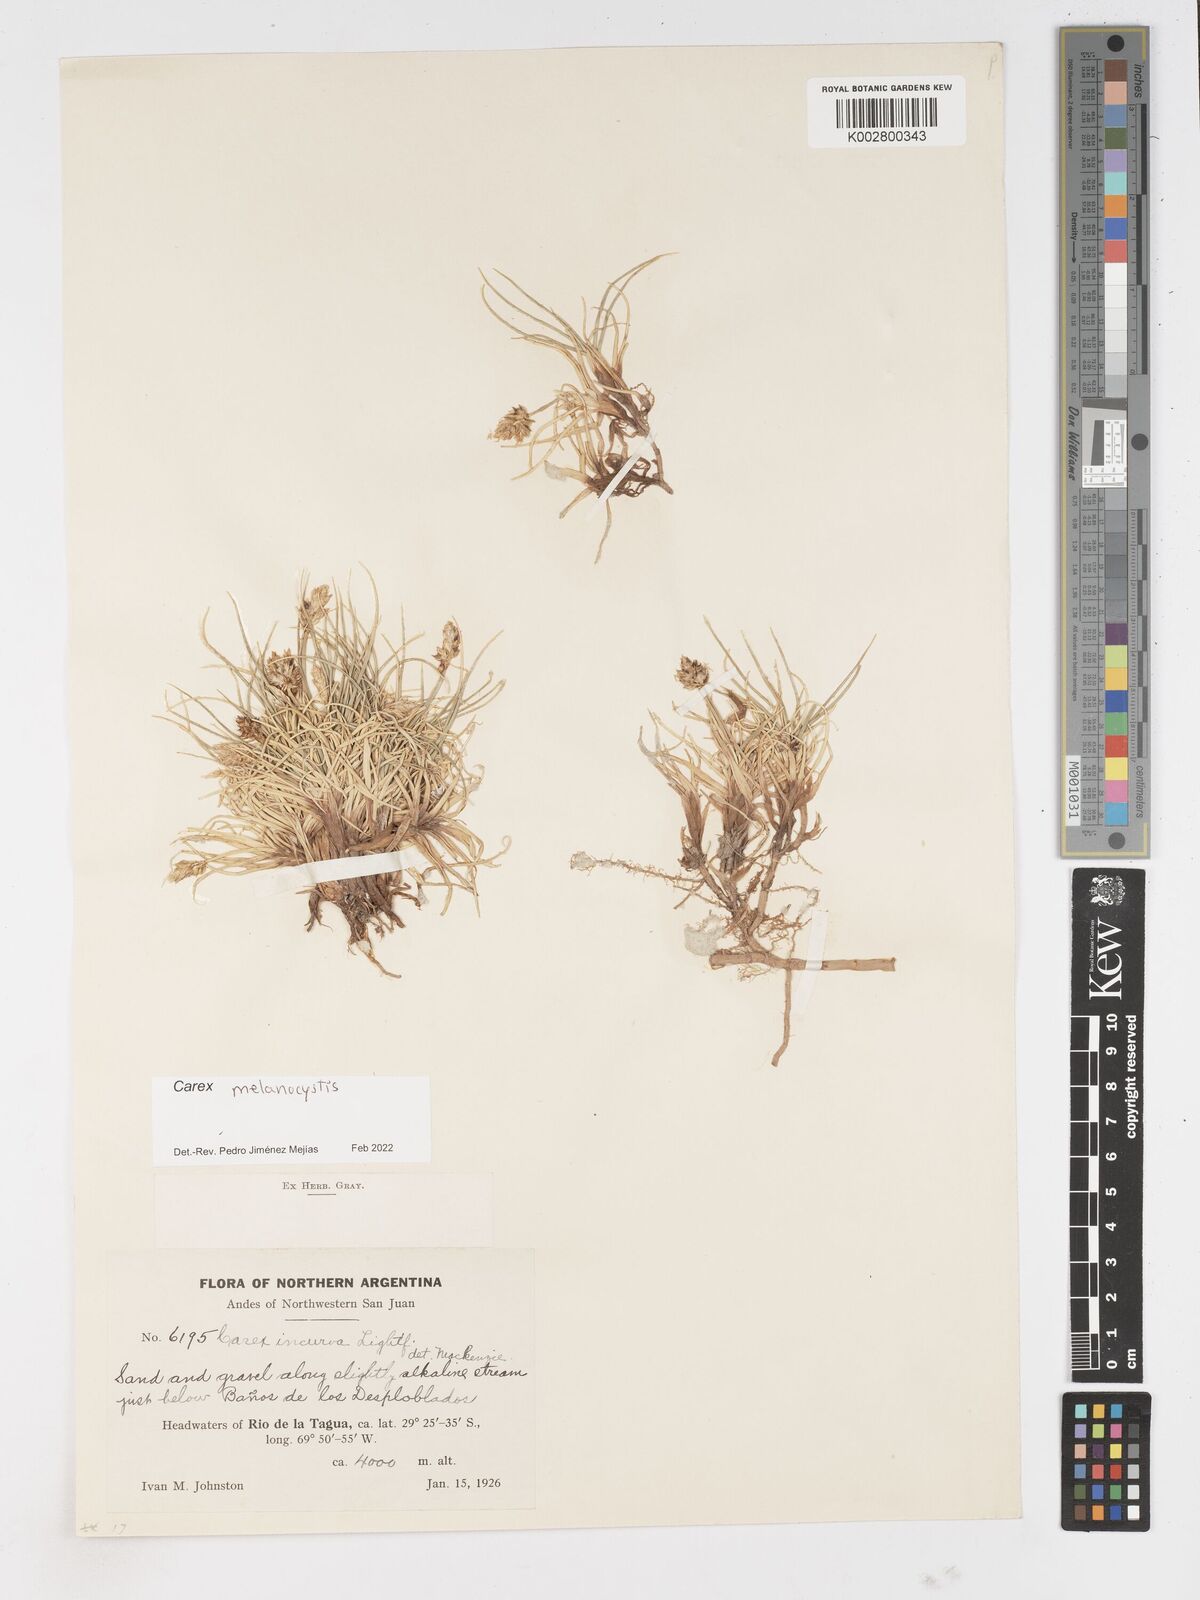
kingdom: Plantae
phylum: Tracheophyta
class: Liliopsida
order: Poales
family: Cyperaceae
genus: Carex
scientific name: Carex melanocystis
